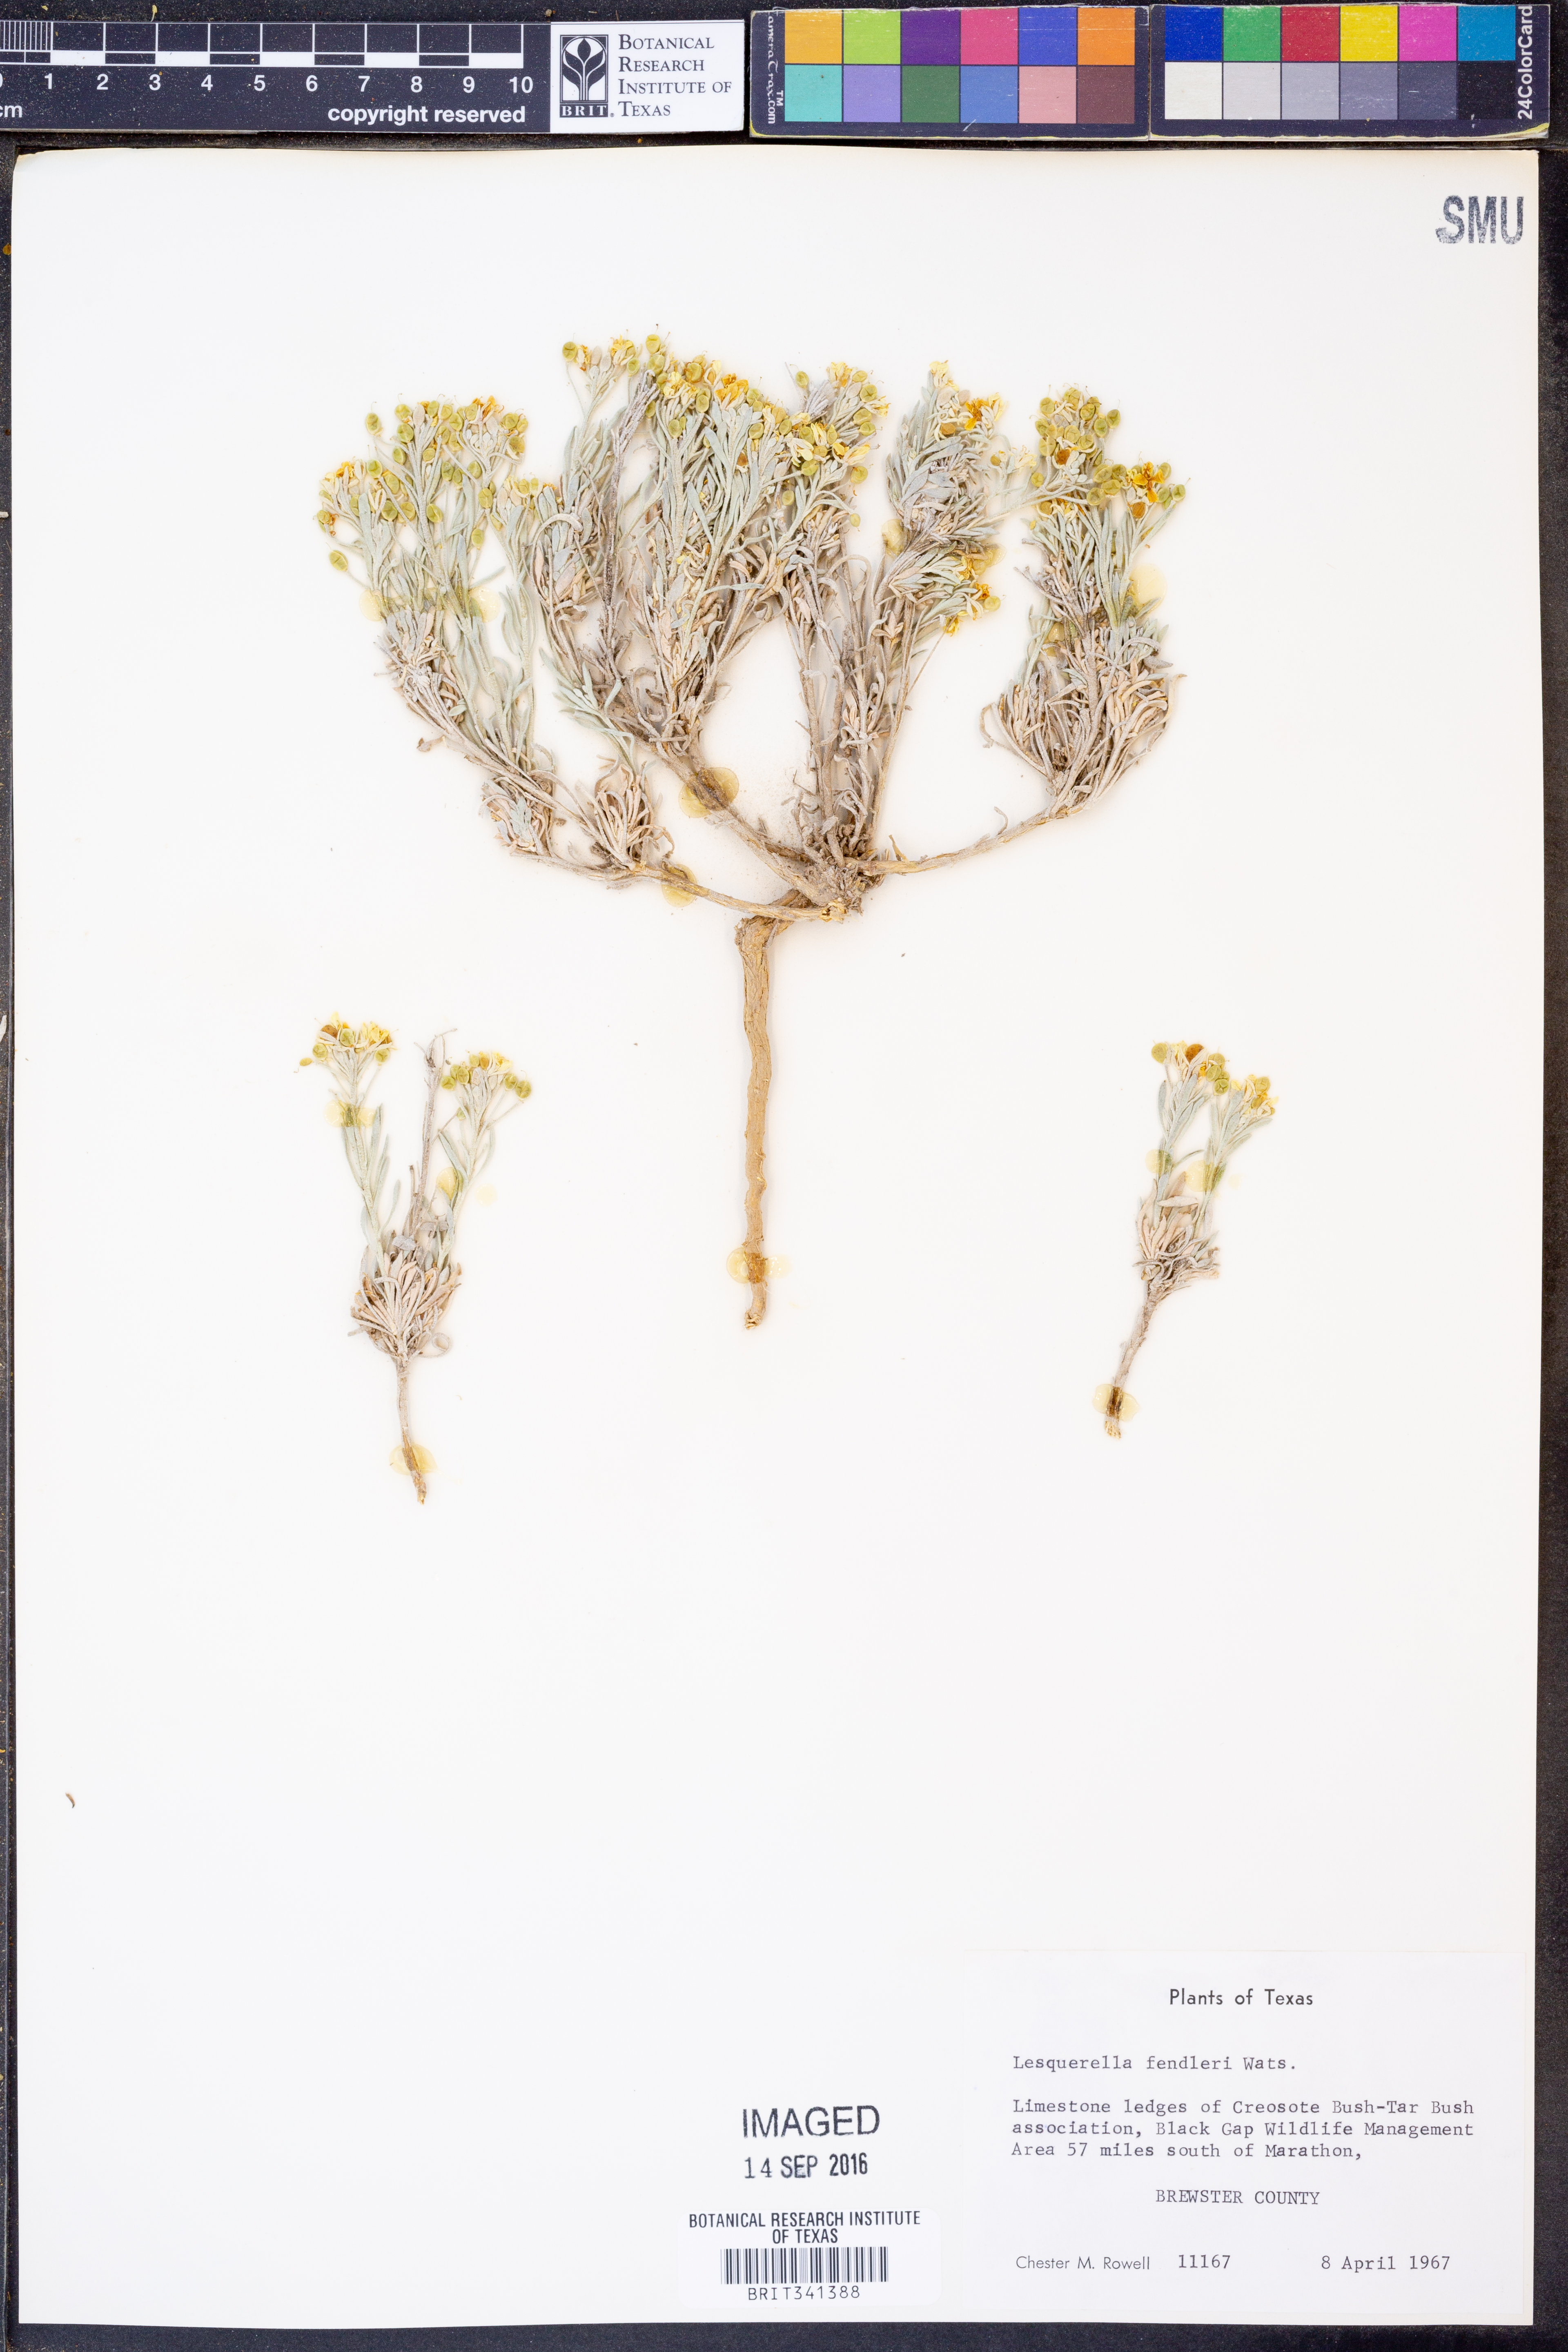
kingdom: Plantae
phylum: Tracheophyta
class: Magnoliopsida
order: Brassicales
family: Brassicaceae
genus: Physaria
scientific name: Physaria fendleri
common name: Fendler's bladderpod
